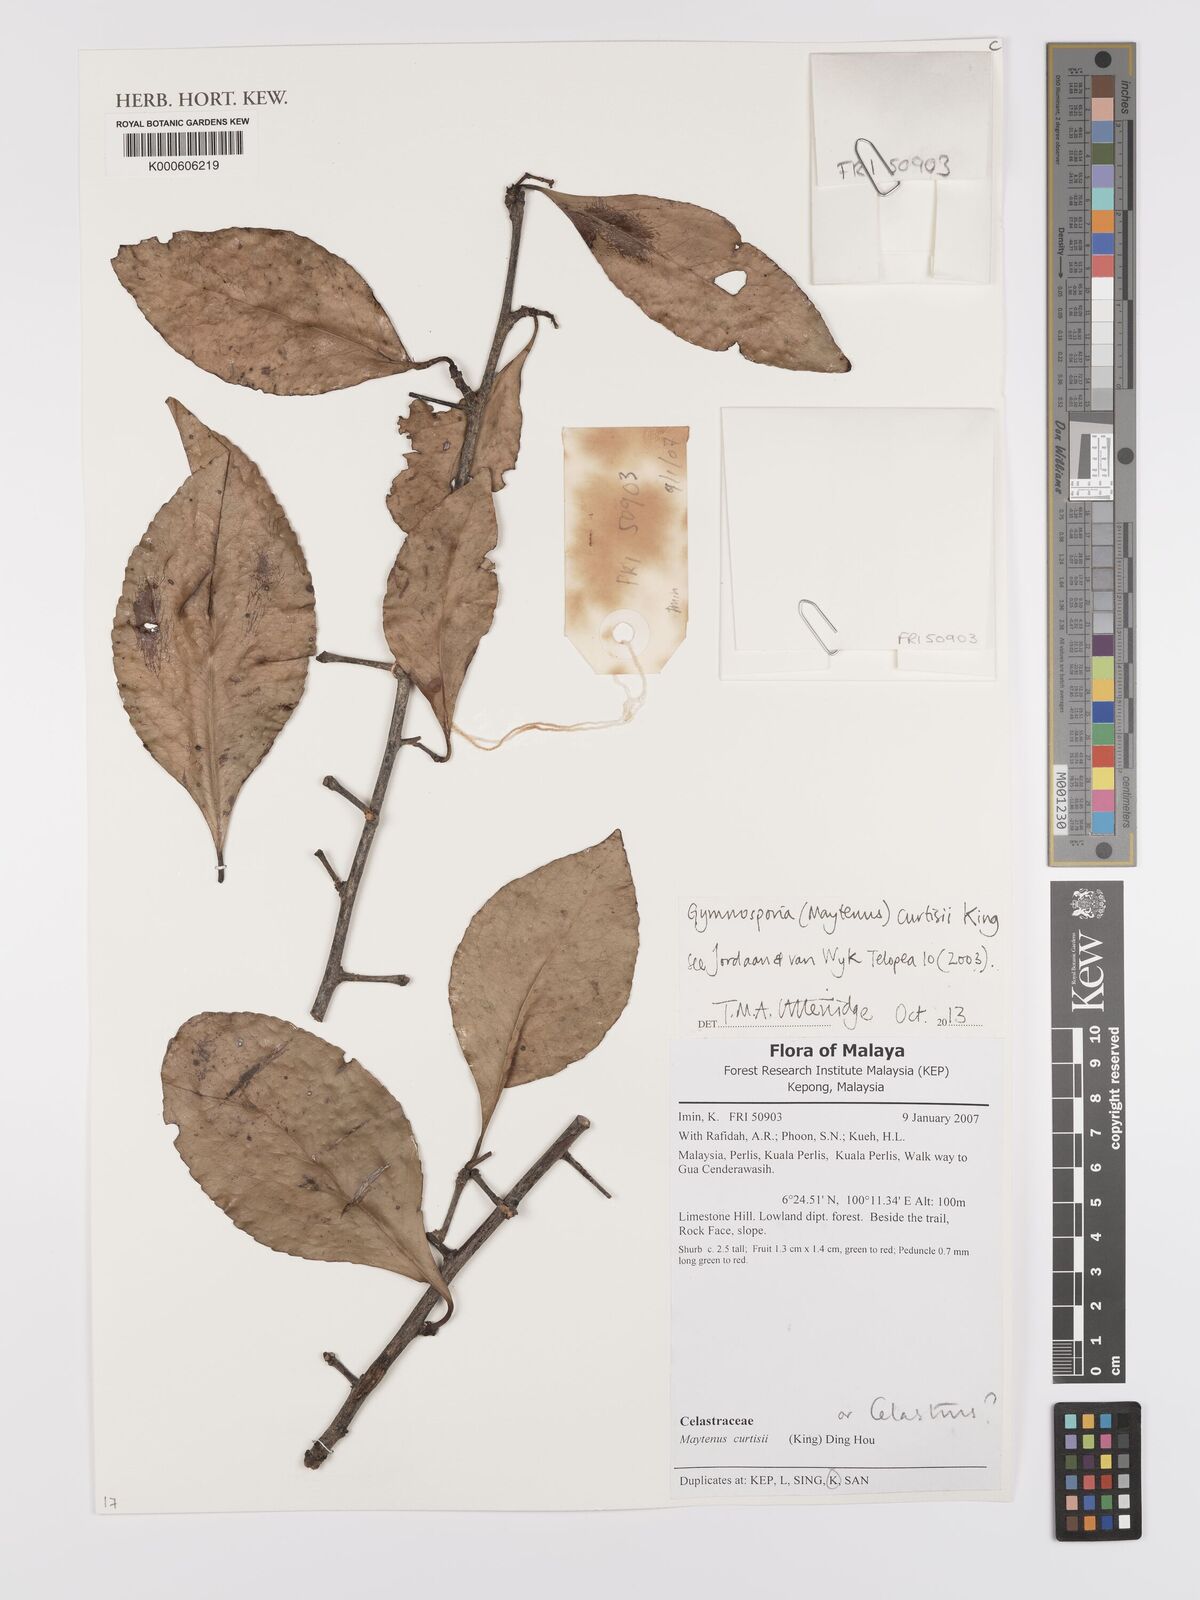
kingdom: Plantae
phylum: Tracheophyta
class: Magnoliopsida
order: Celastrales
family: Celastraceae
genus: Gymnosporia
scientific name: Gymnosporia stylosa
